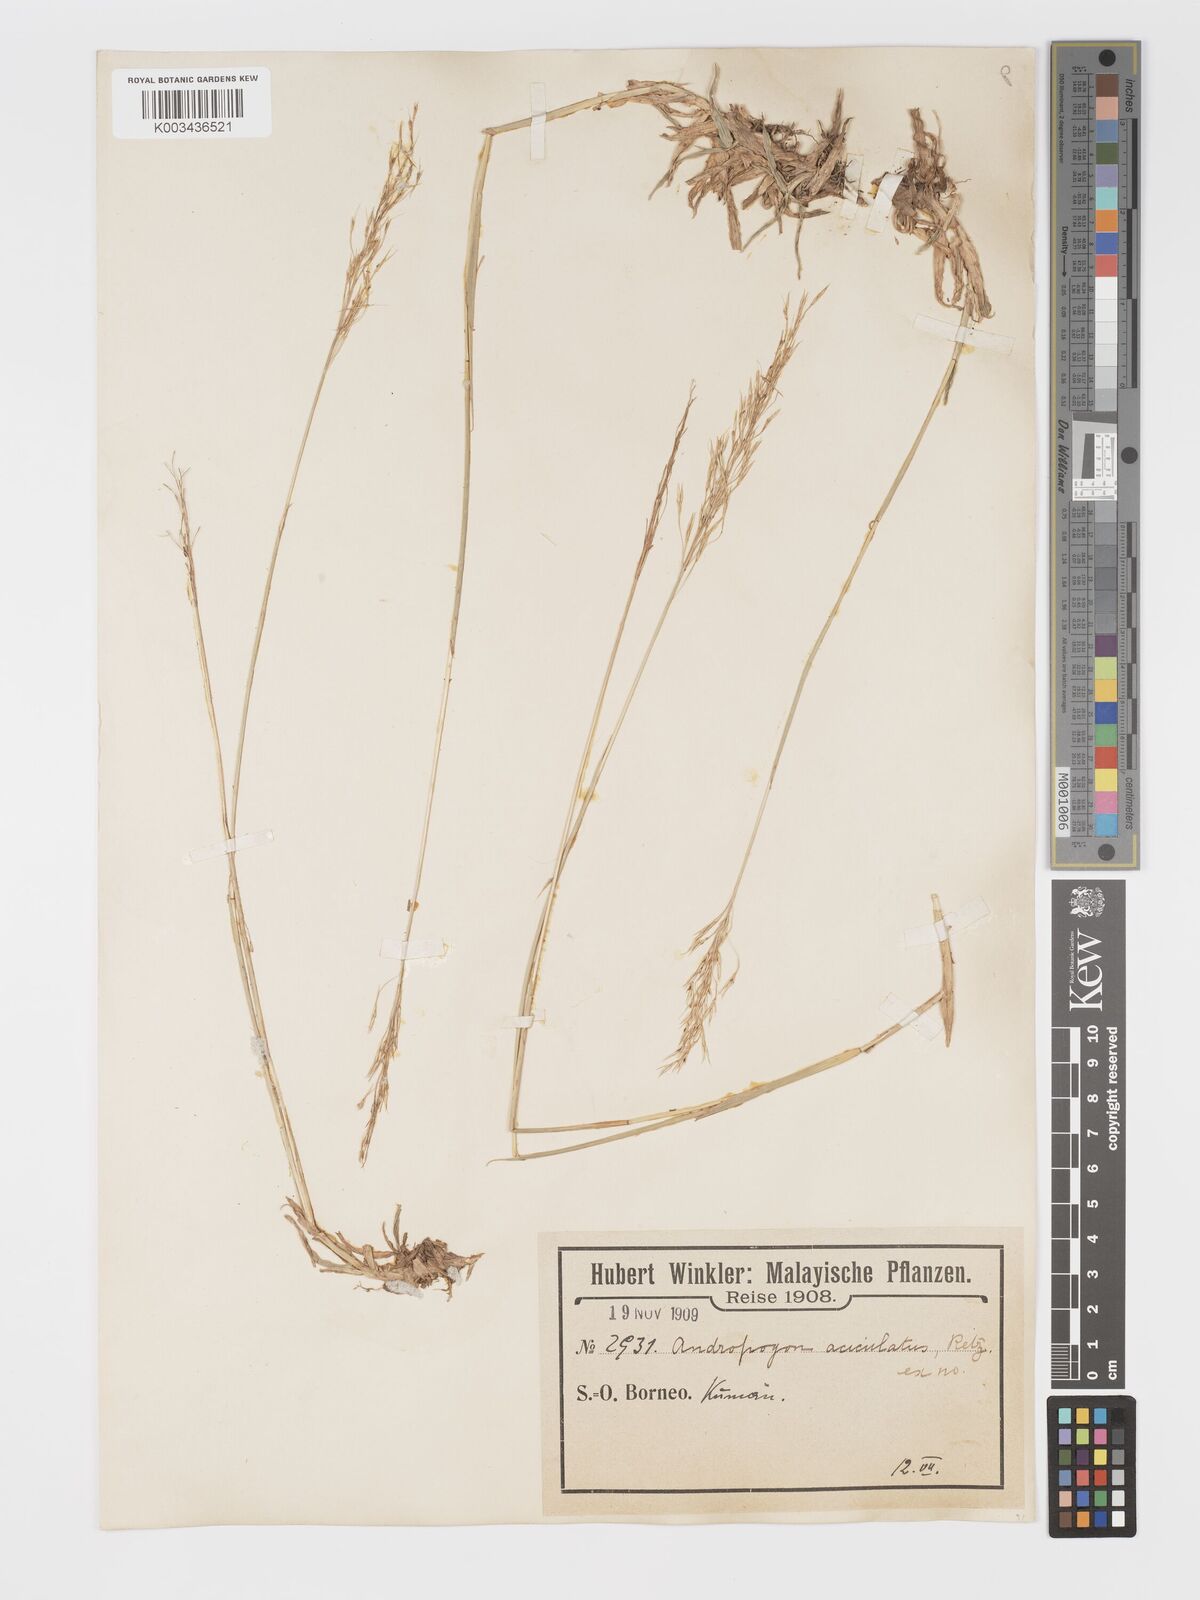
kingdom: Plantae
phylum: Tracheophyta
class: Liliopsida
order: Poales
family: Poaceae
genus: Chrysopogon
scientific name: Chrysopogon aciculatus
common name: Pilipiliula
